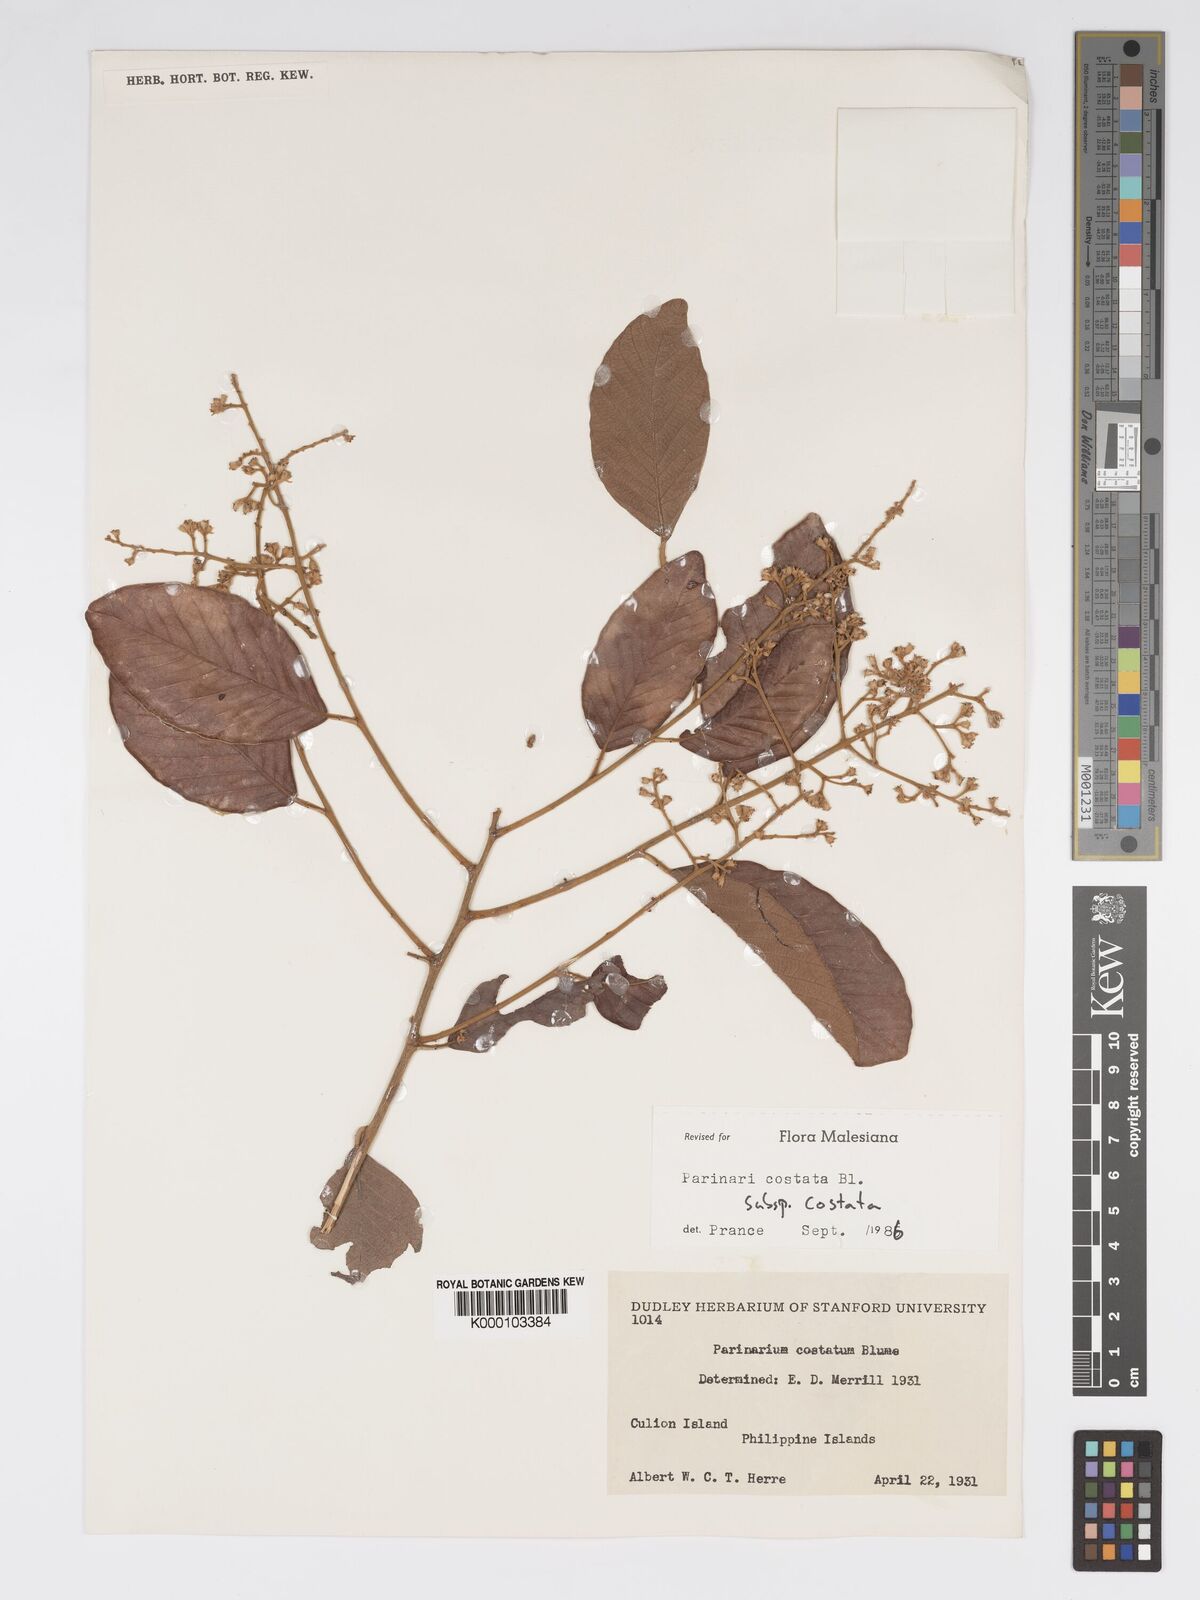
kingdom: Plantae
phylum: Tracheophyta
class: Magnoliopsida
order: Malpighiales
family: Chrysobalanaceae
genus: Parinari
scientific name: Parinari costata
